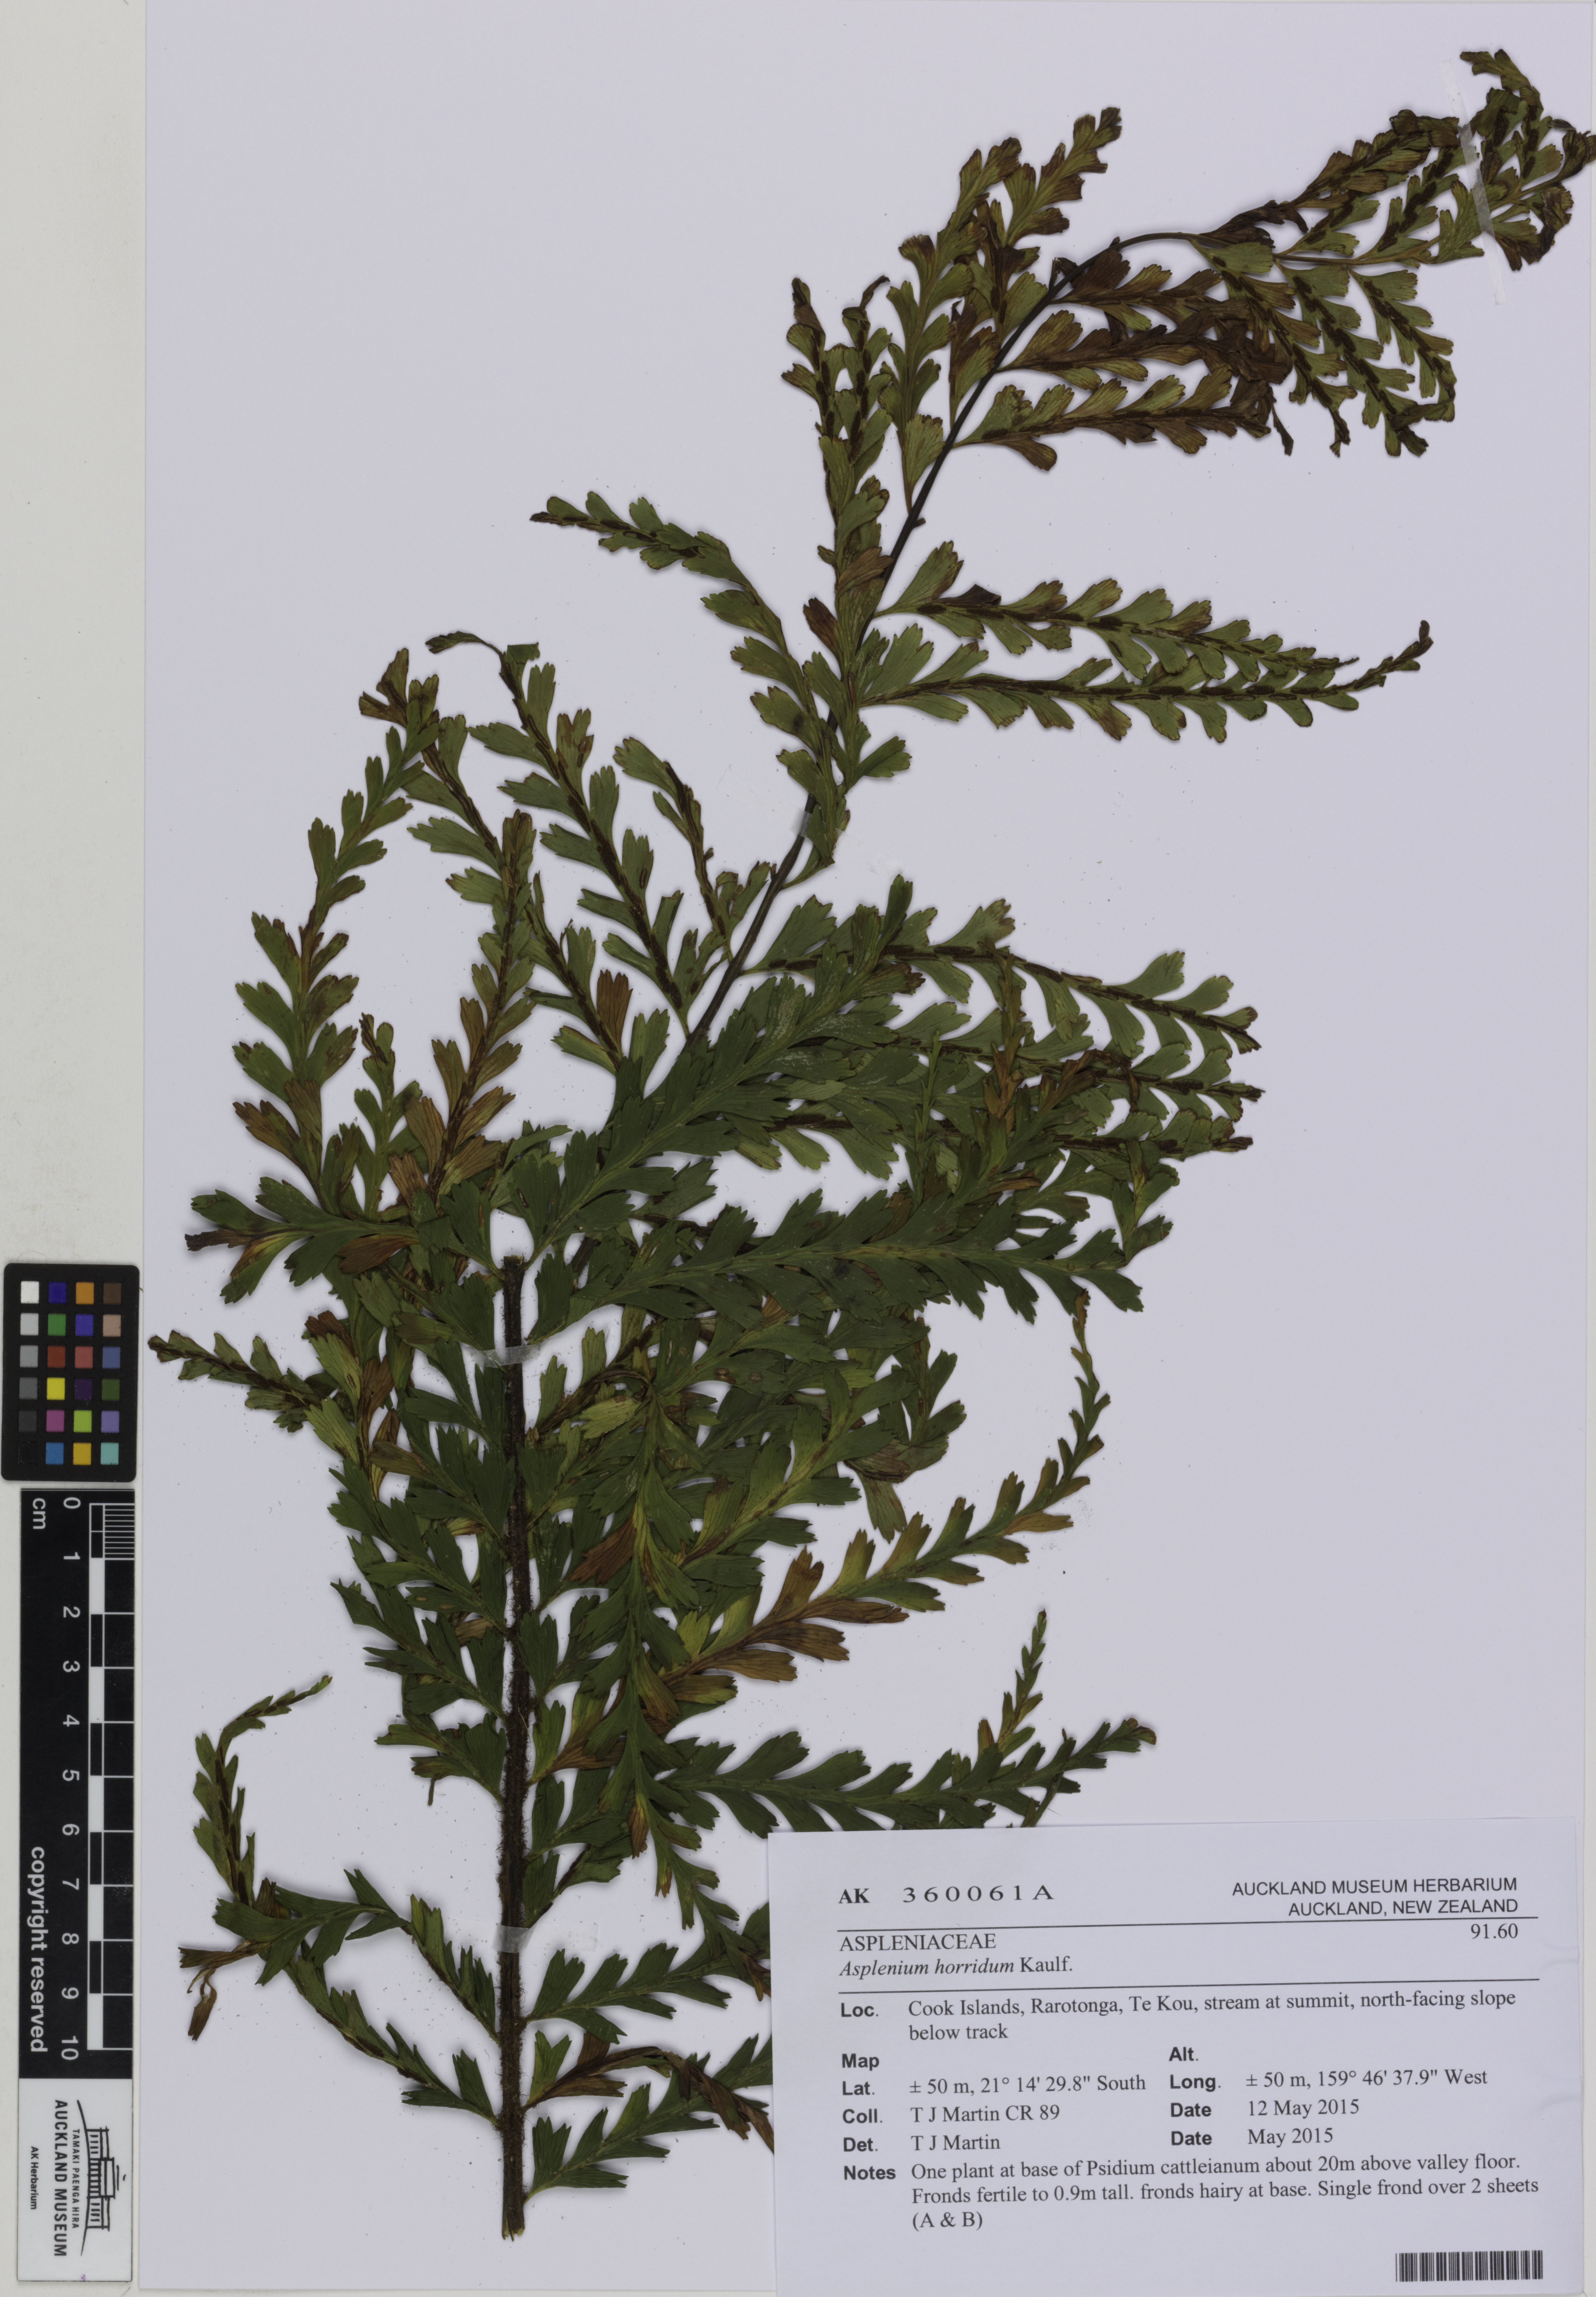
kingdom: Plantae
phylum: Tracheophyta
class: Polypodiopsida
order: Polypodiales
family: Aspleniaceae
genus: Asplenium
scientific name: Asplenium horridum
